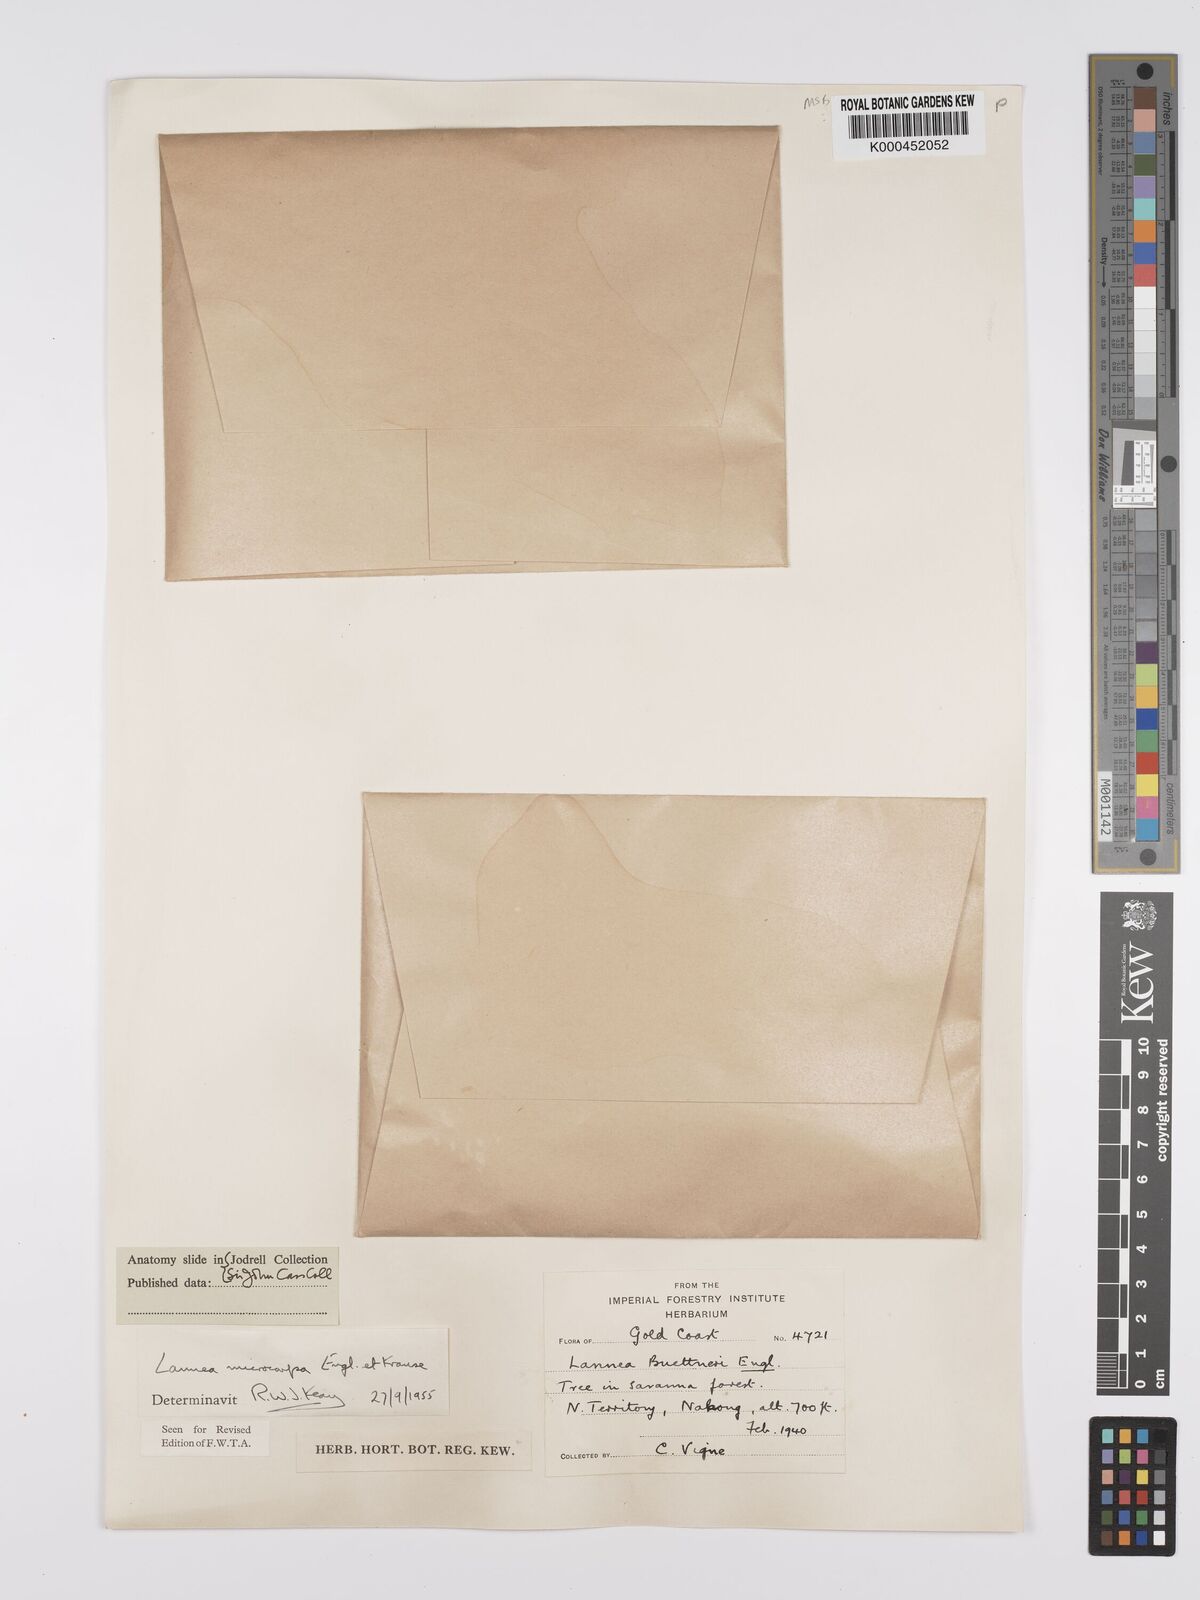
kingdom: Plantae
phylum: Tracheophyta
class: Magnoliopsida
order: Sapindales
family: Anacardiaceae
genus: Lannea
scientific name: Lannea microcarpa
